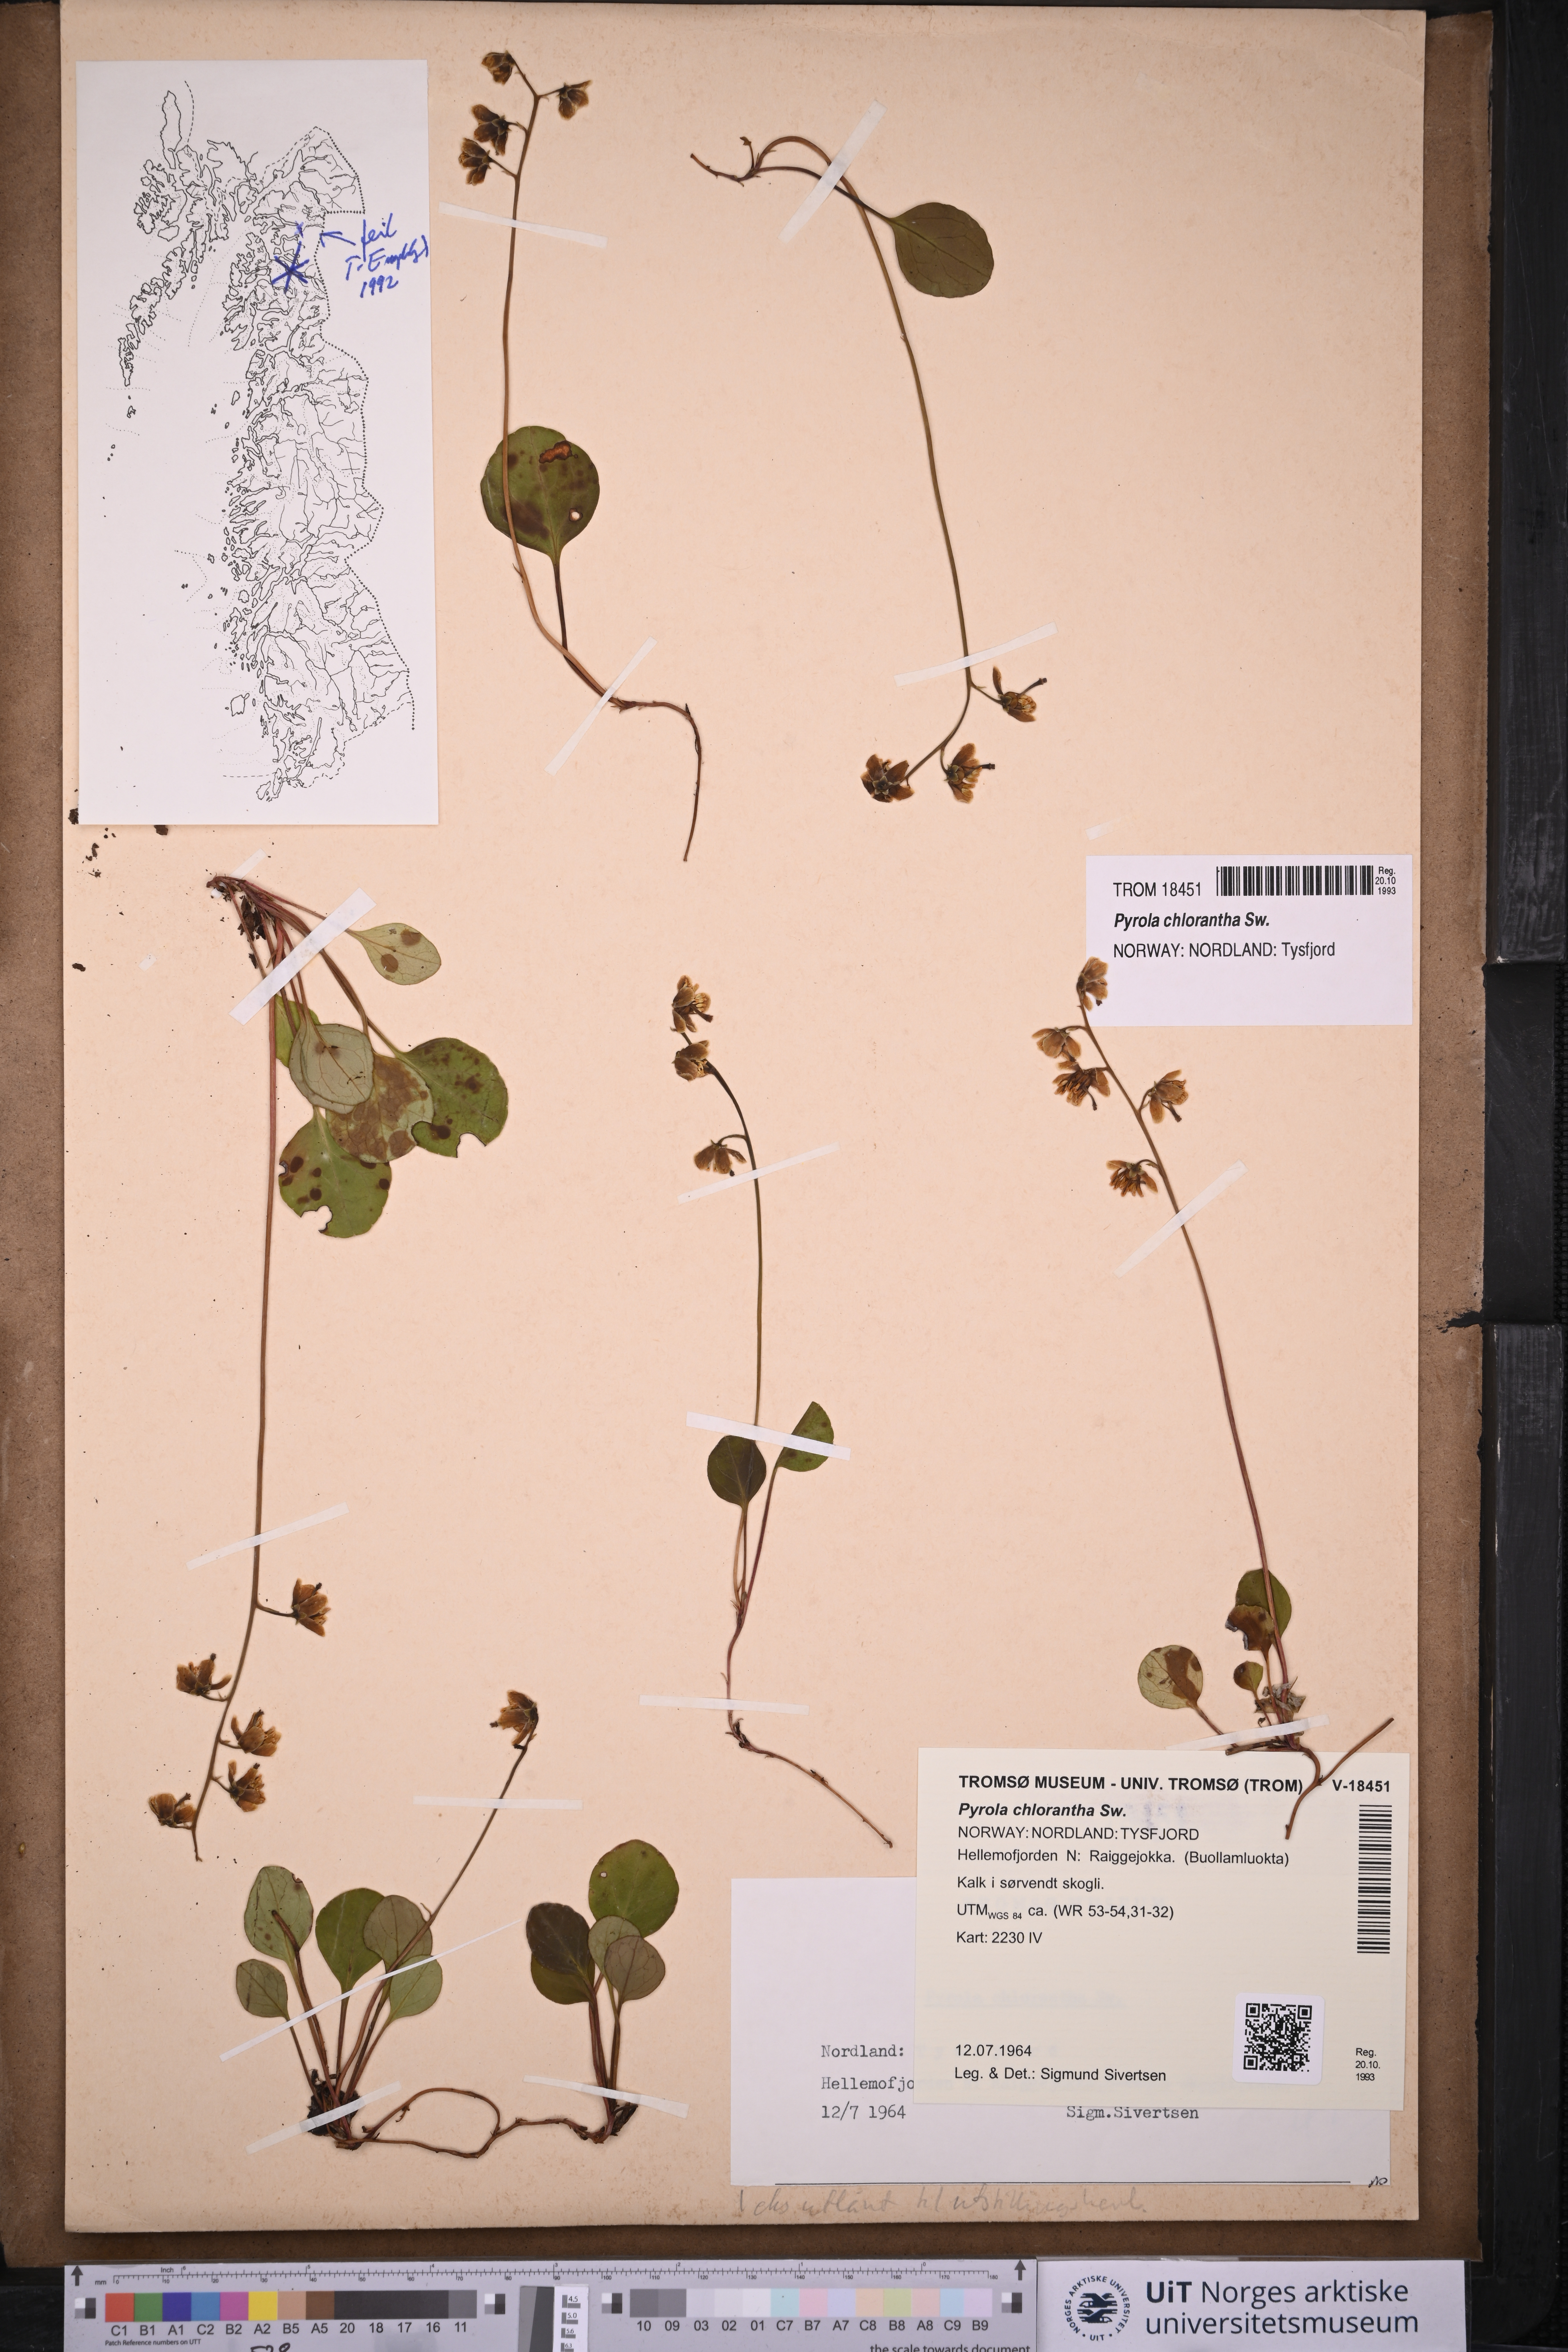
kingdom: Plantae
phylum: Tracheophyta
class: Magnoliopsida
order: Ericales
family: Ericaceae
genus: Pyrola
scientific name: Pyrola chlorantha
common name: Green wintergreen
